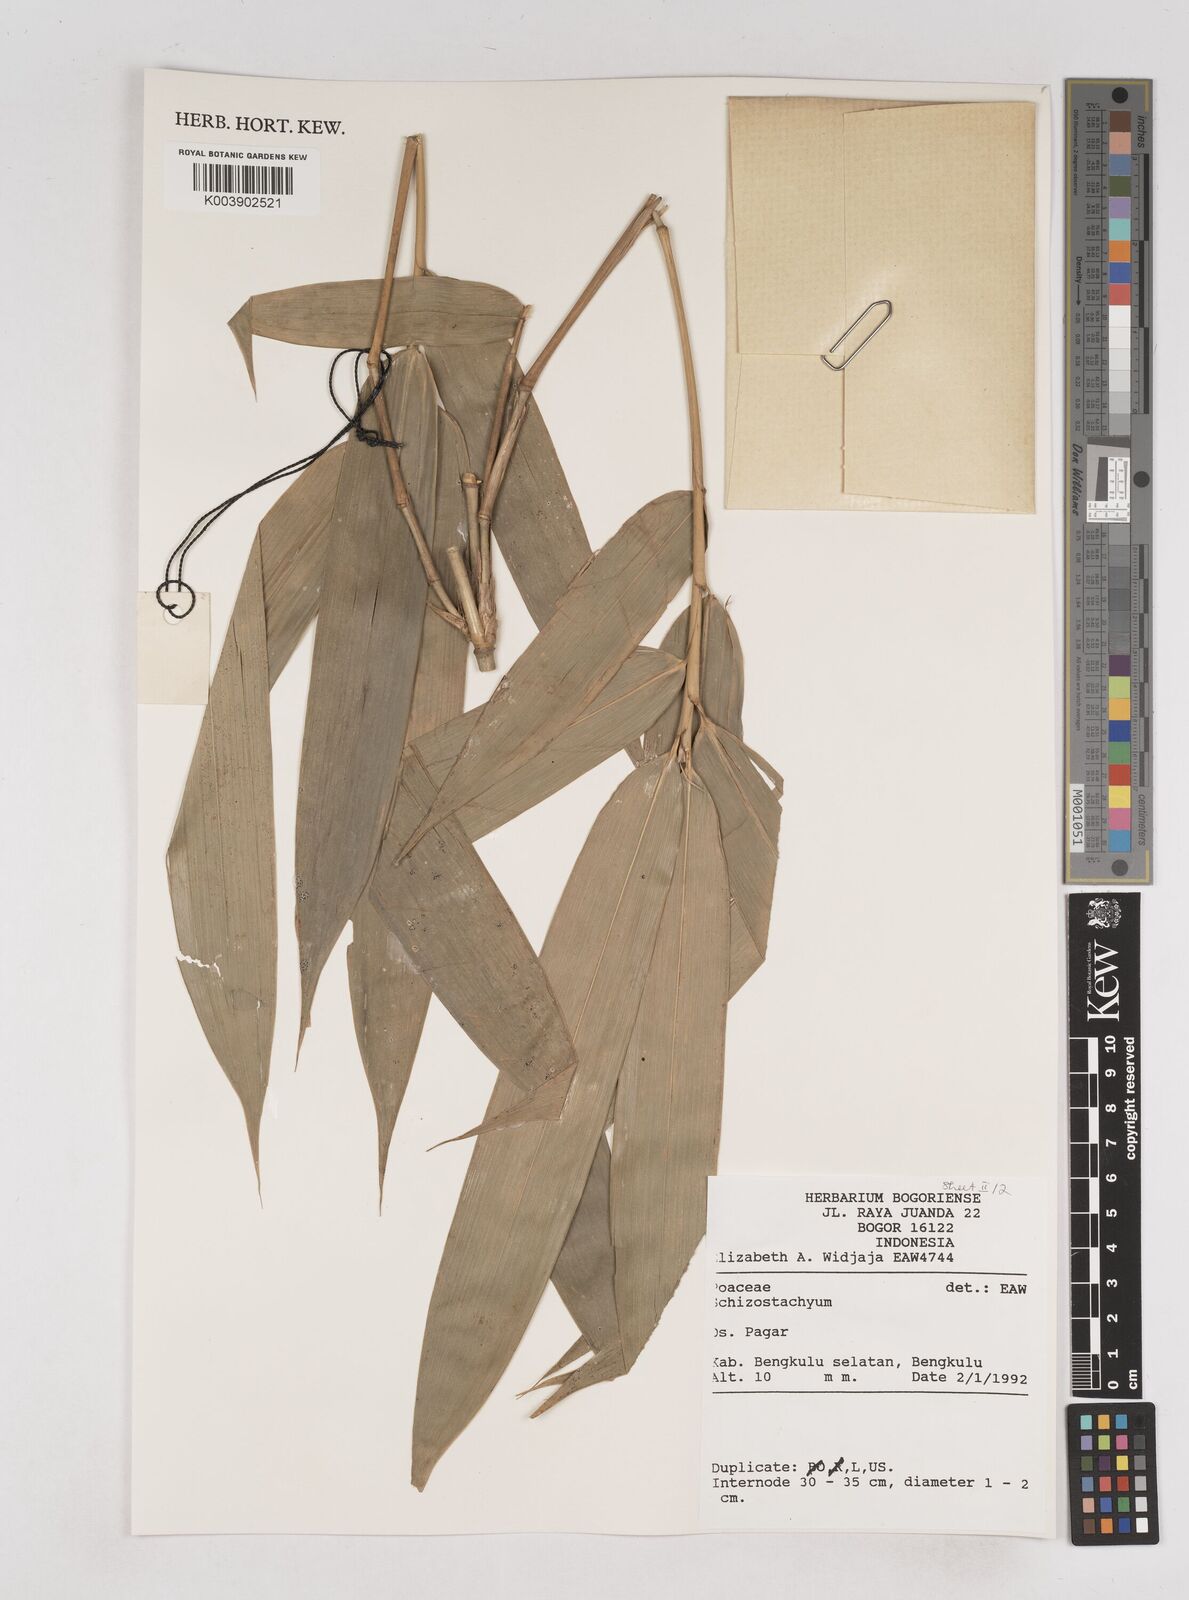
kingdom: Plantae
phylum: Tracheophyta
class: Liliopsida
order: Poales
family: Poaceae
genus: Schizostachyum
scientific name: Schizostachyum
